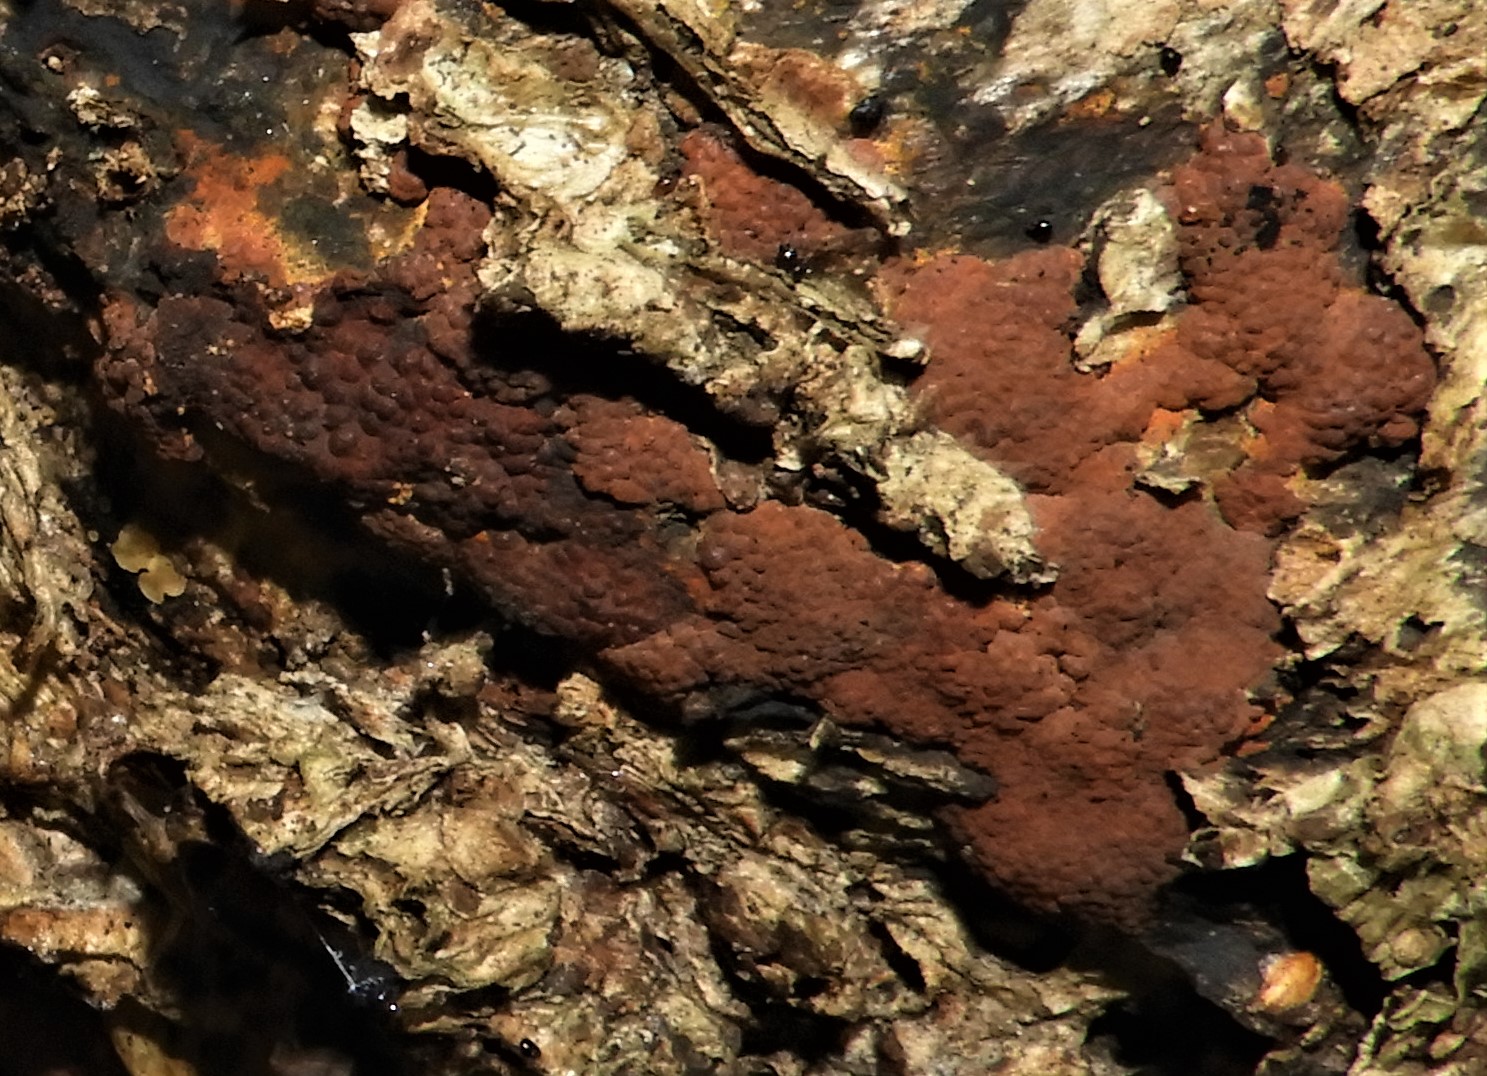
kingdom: Fungi
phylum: Ascomycota
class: Sordariomycetes
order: Xylariales
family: Hypoxylaceae
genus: Hypoxylon
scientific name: Hypoxylon rubiginosum
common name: rustfarvet kulbær
